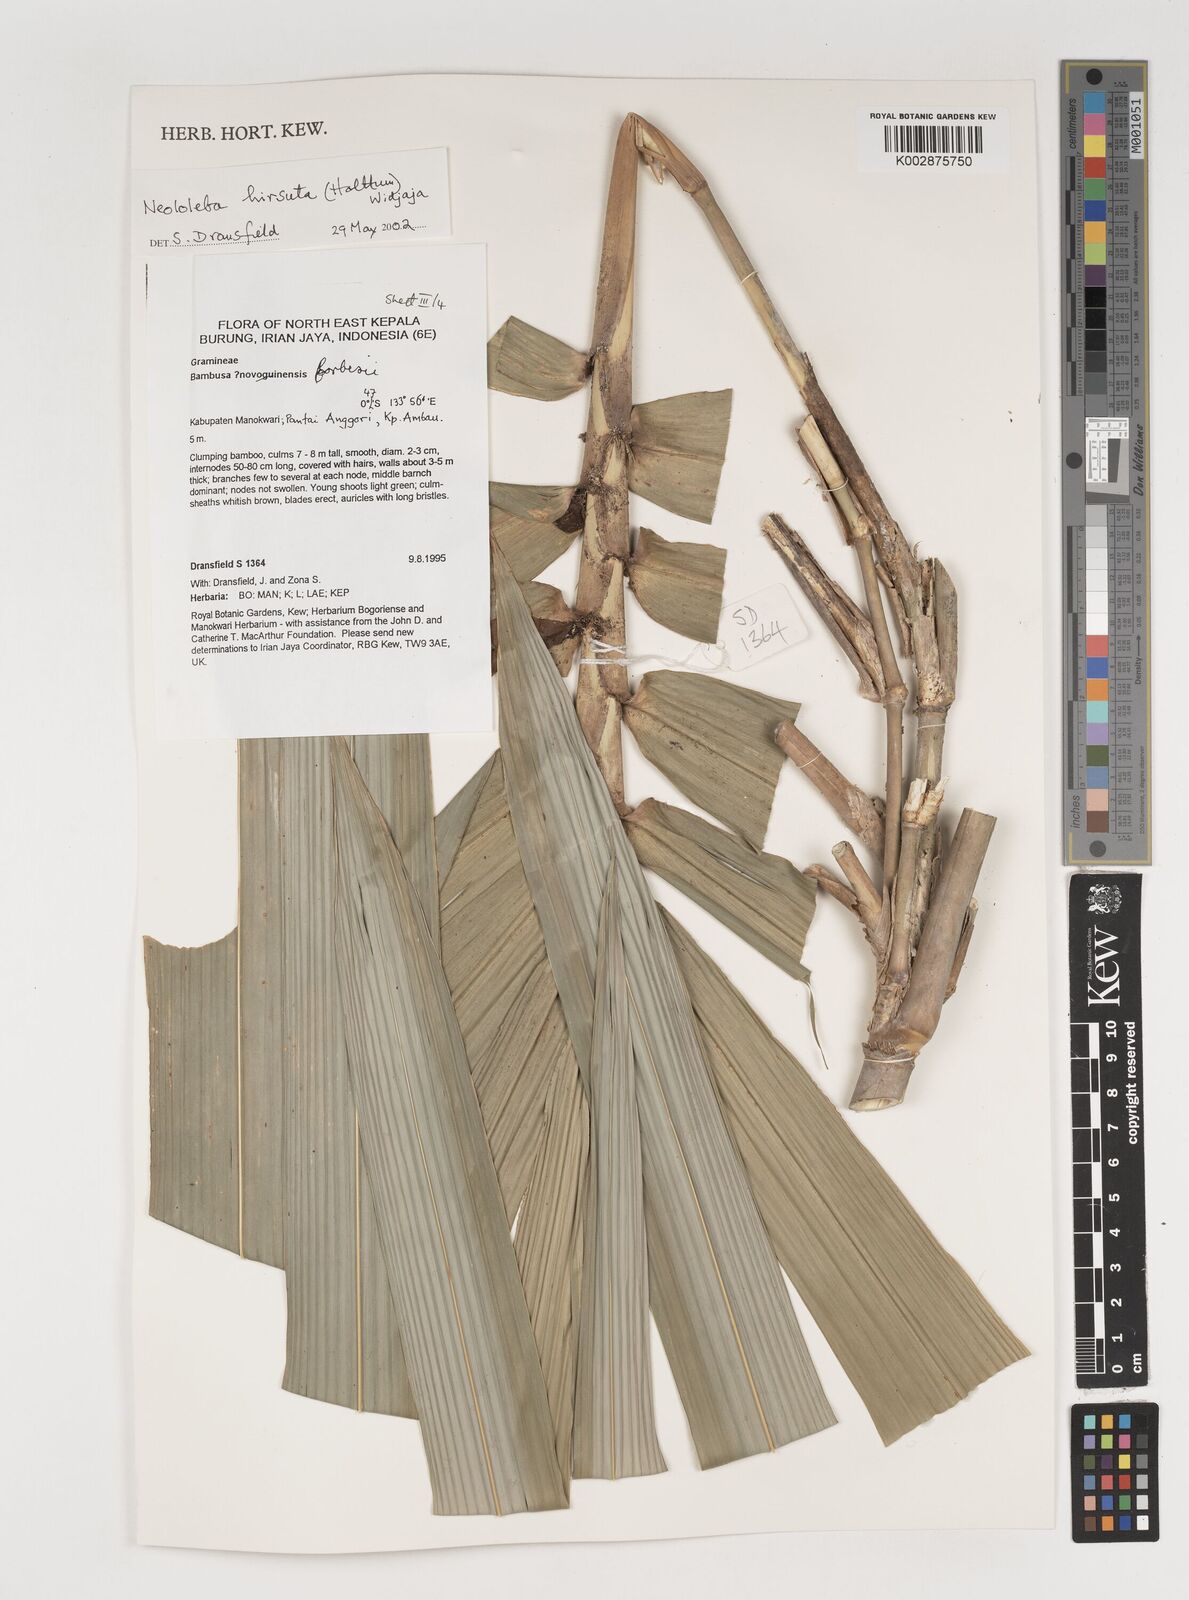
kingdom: Plantae
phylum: Tracheophyta
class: Liliopsida
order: Poales
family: Poaceae
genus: Neololeba
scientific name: Neololeba hirsuta
